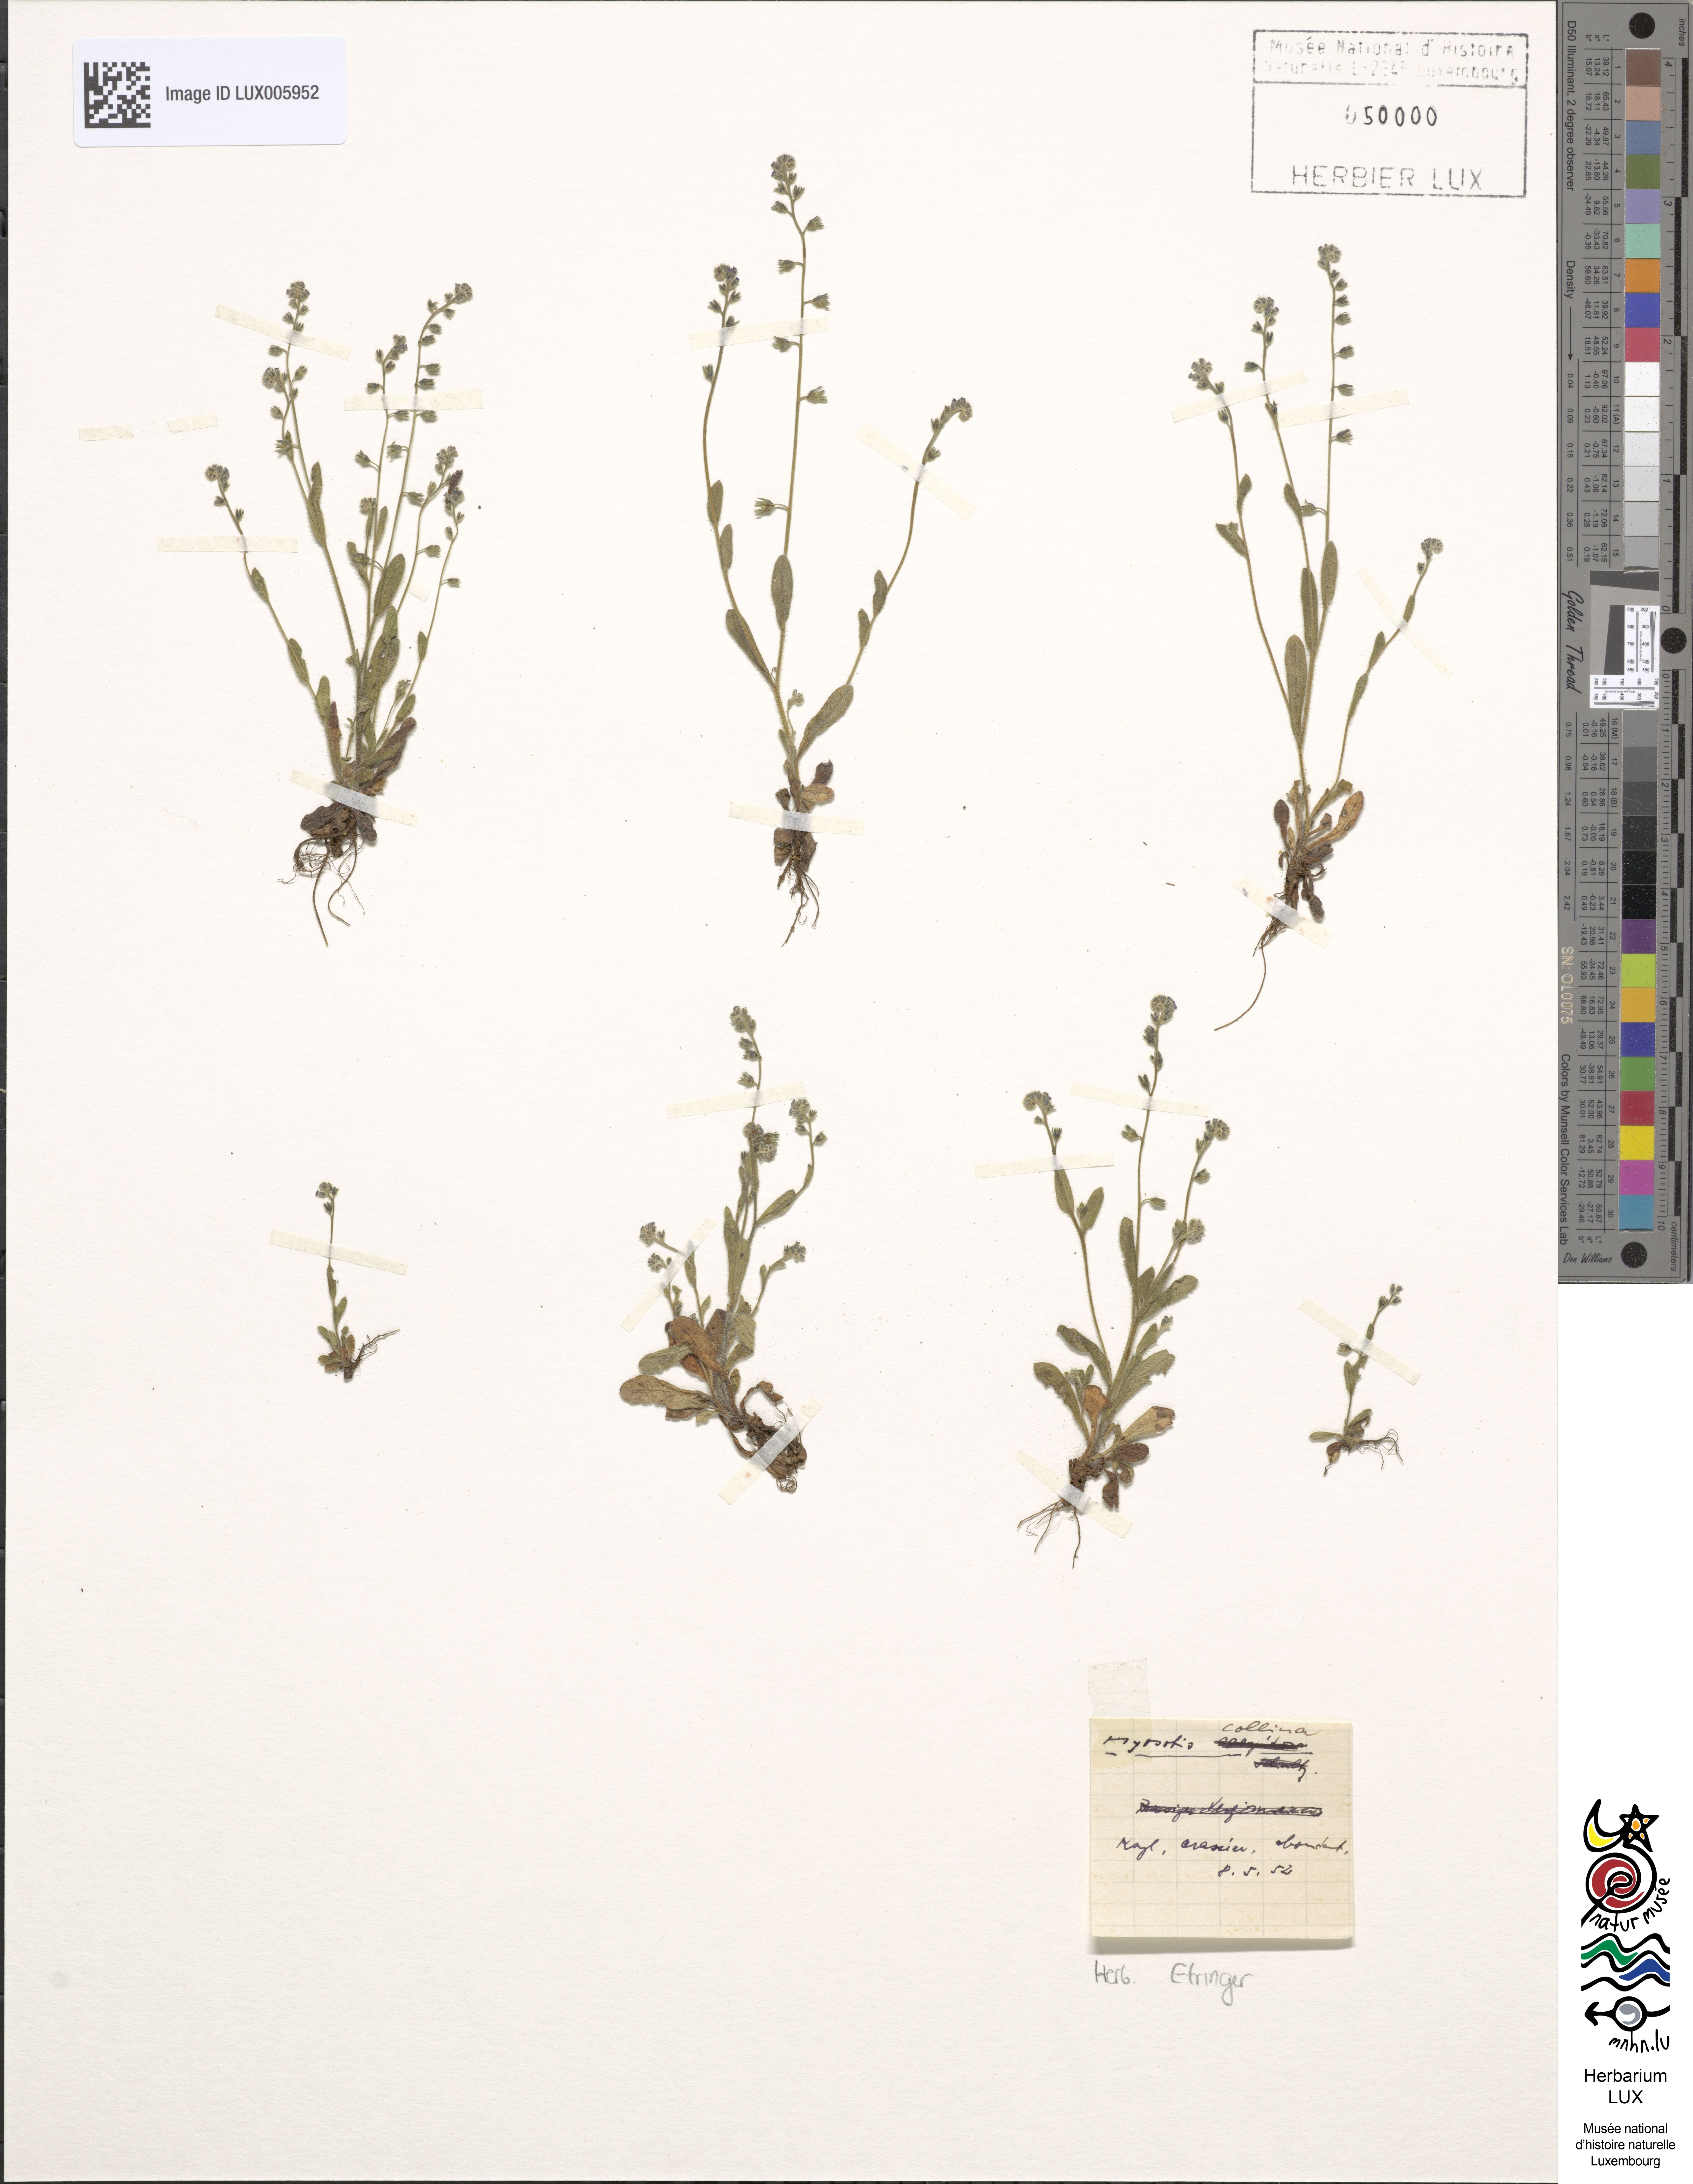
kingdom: Plantae
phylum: Tracheophyta
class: Magnoliopsida
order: Boraginales
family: Boraginaceae
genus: Myosotis
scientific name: Myosotis ramosissima
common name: Early forget-me-not
